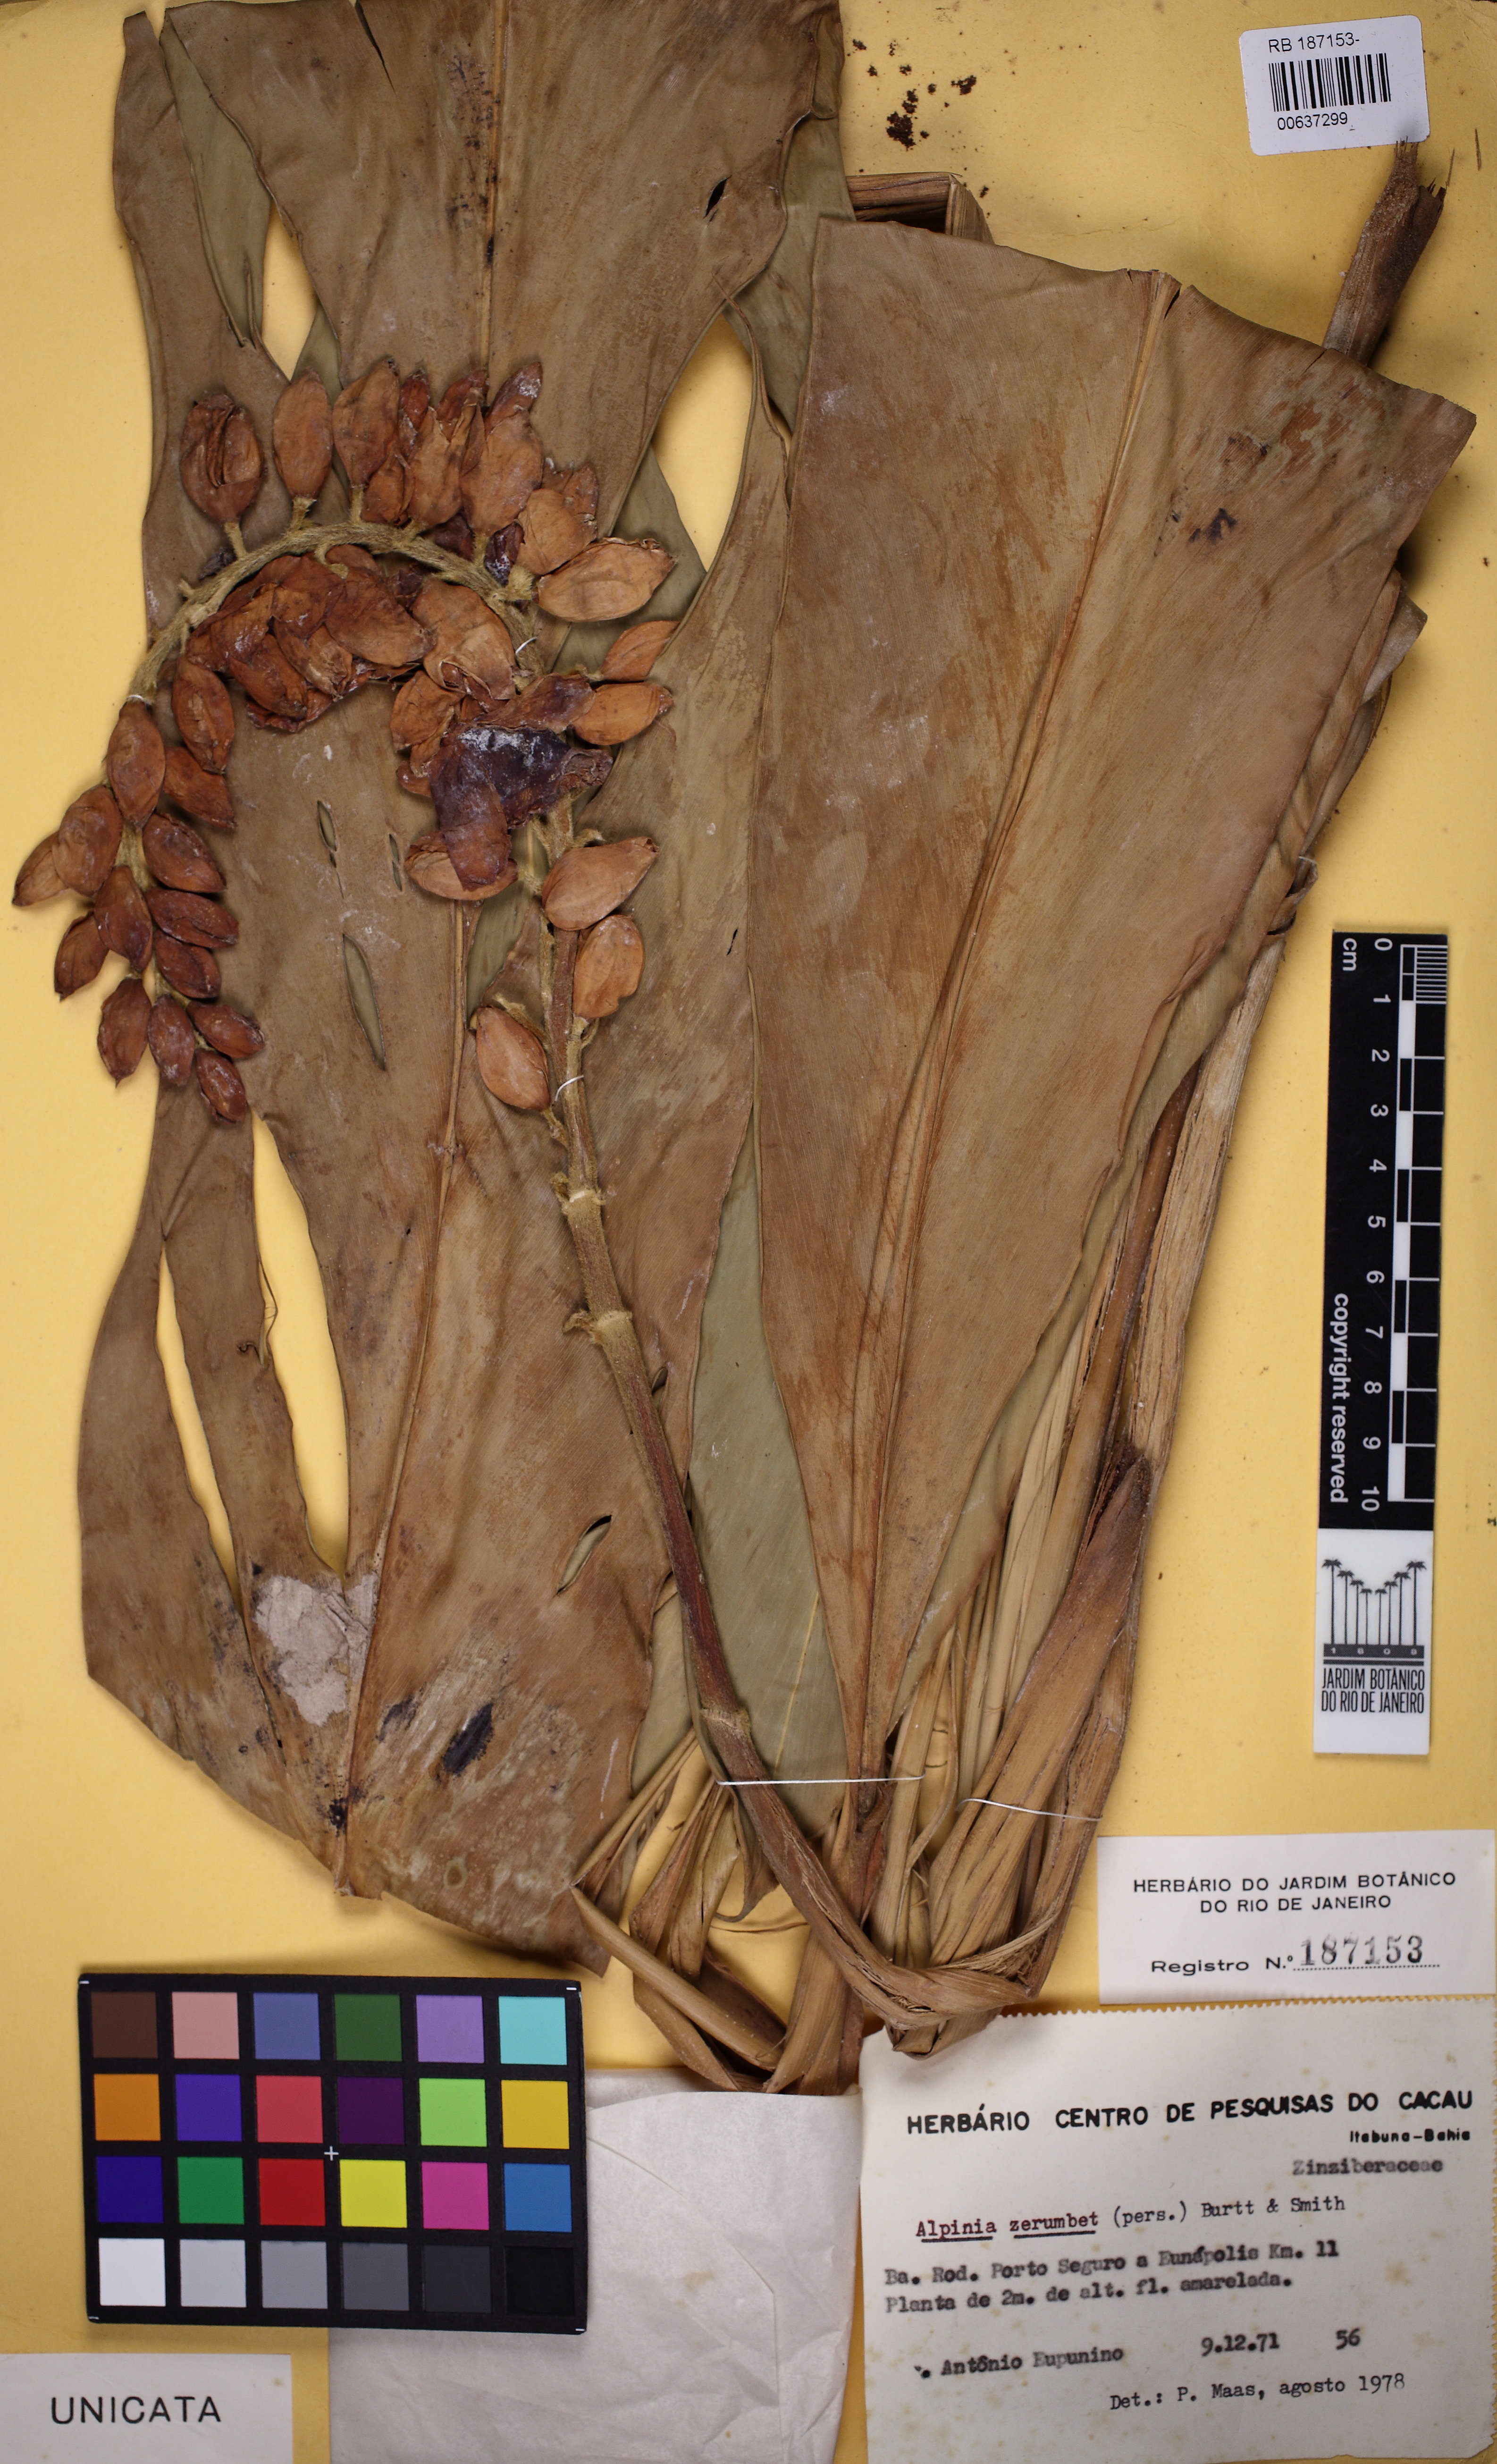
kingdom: Plantae
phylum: Tracheophyta
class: Liliopsida
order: Zingiberales
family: Zingiberaceae
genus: Alpinia
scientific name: Alpinia zerumbet
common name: Shellplant
